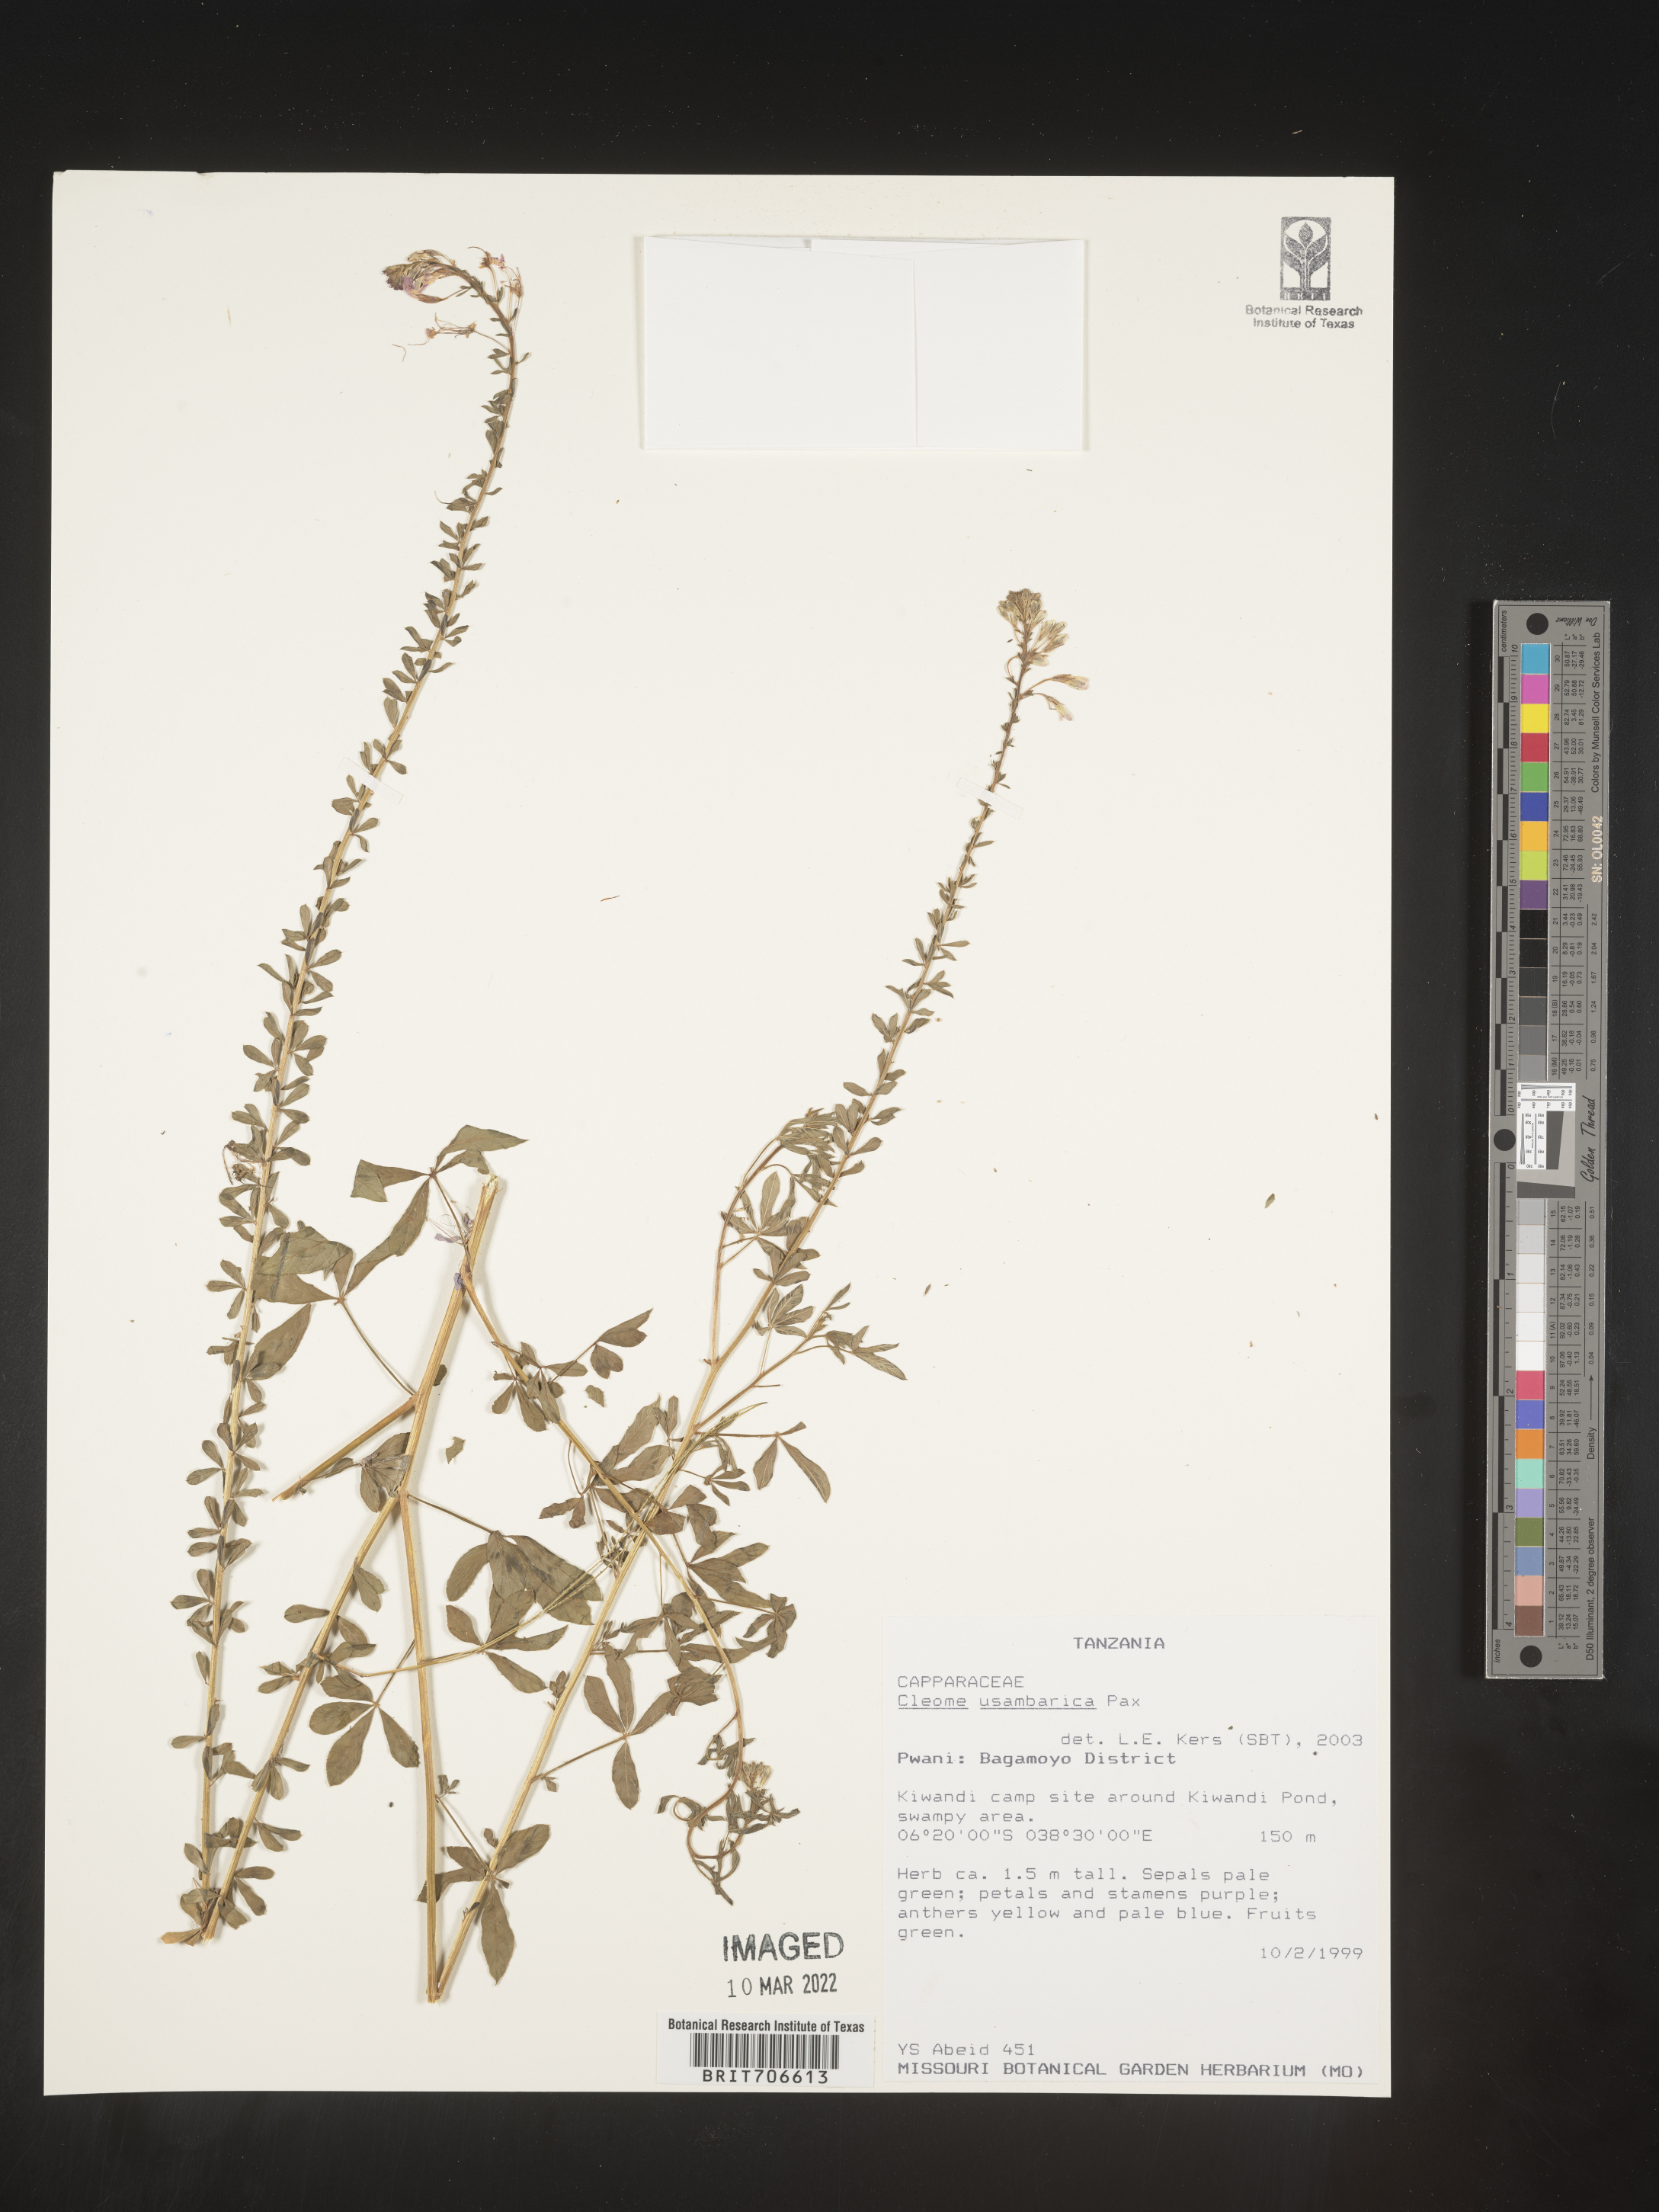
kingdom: Plantae
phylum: Tracheophyta
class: Magnoliopsida
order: Brassicales
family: Cleomaceae
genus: Cleome
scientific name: Cleome
